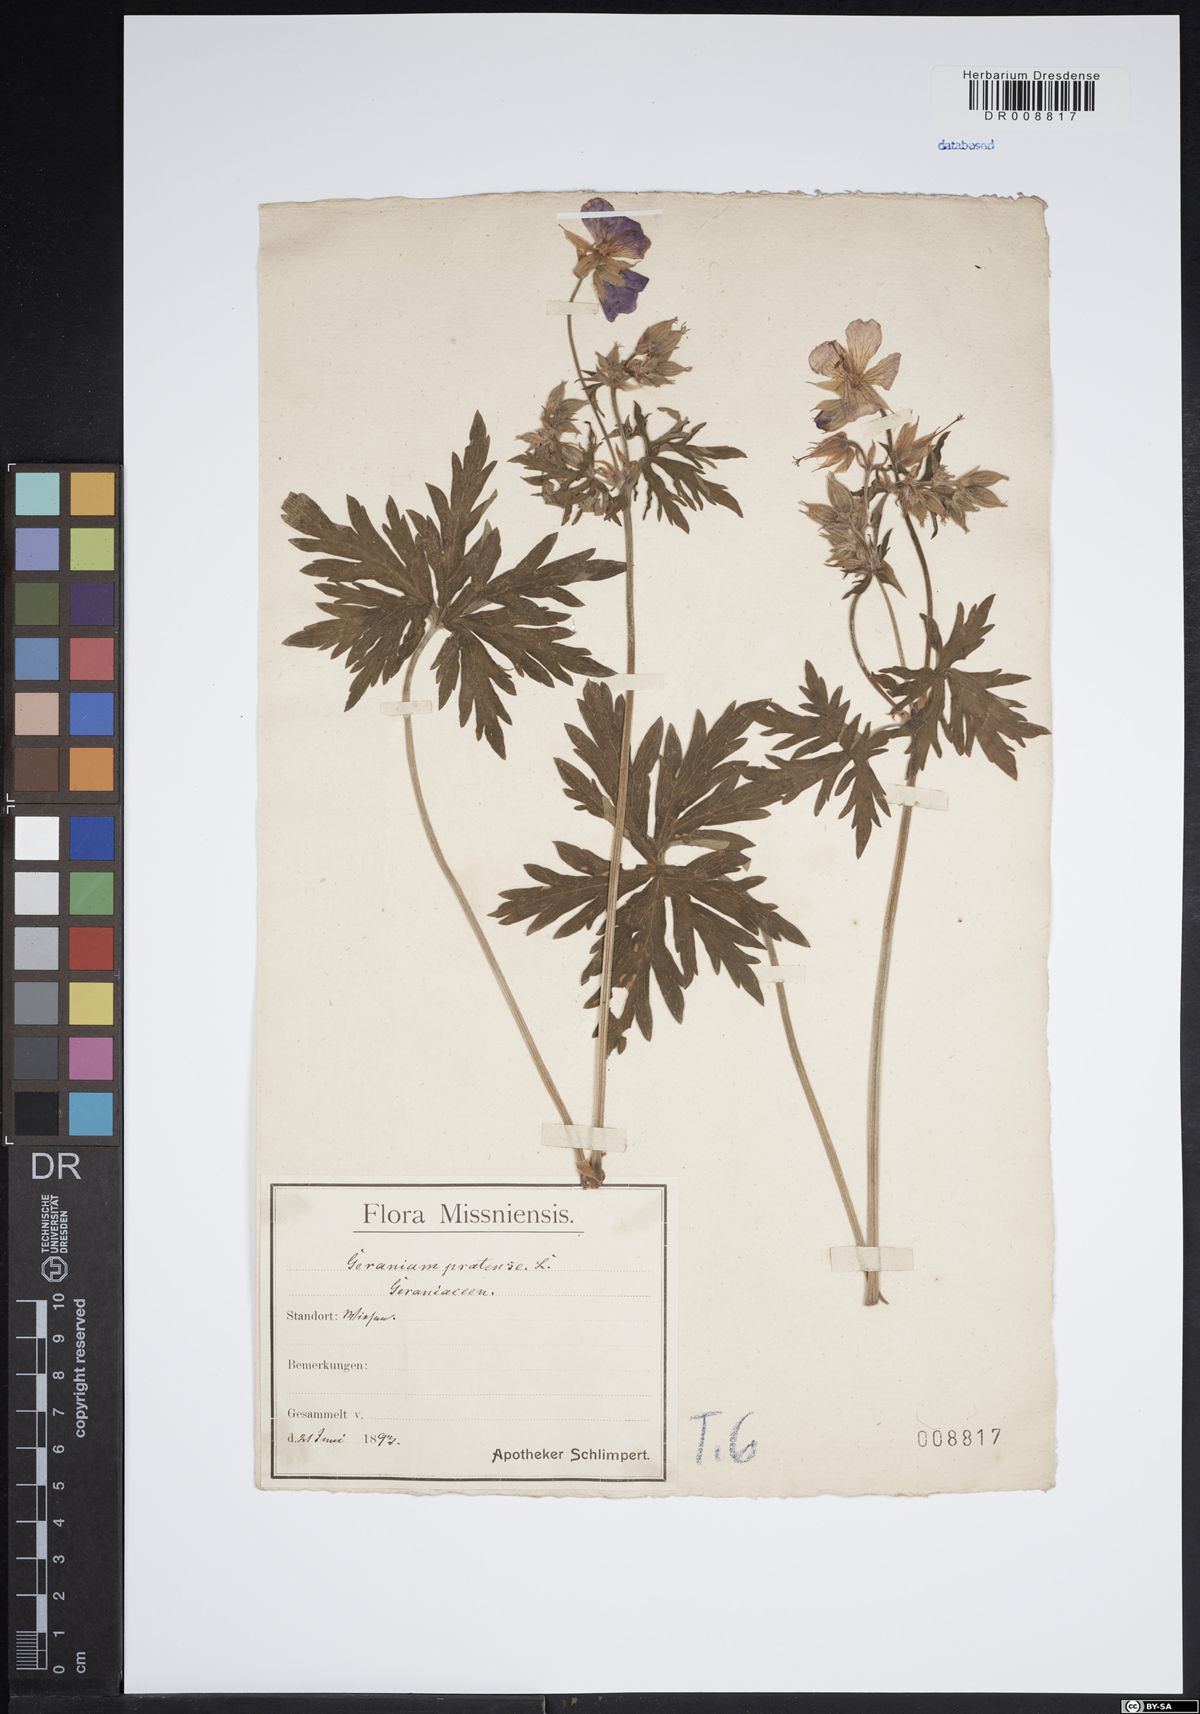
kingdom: Plantae
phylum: Tracheophyta
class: Magnoliopsida
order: Geraniales
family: Geraniaceae
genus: Geranium
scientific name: Geranium pratense
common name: Meadow crane's-bill
